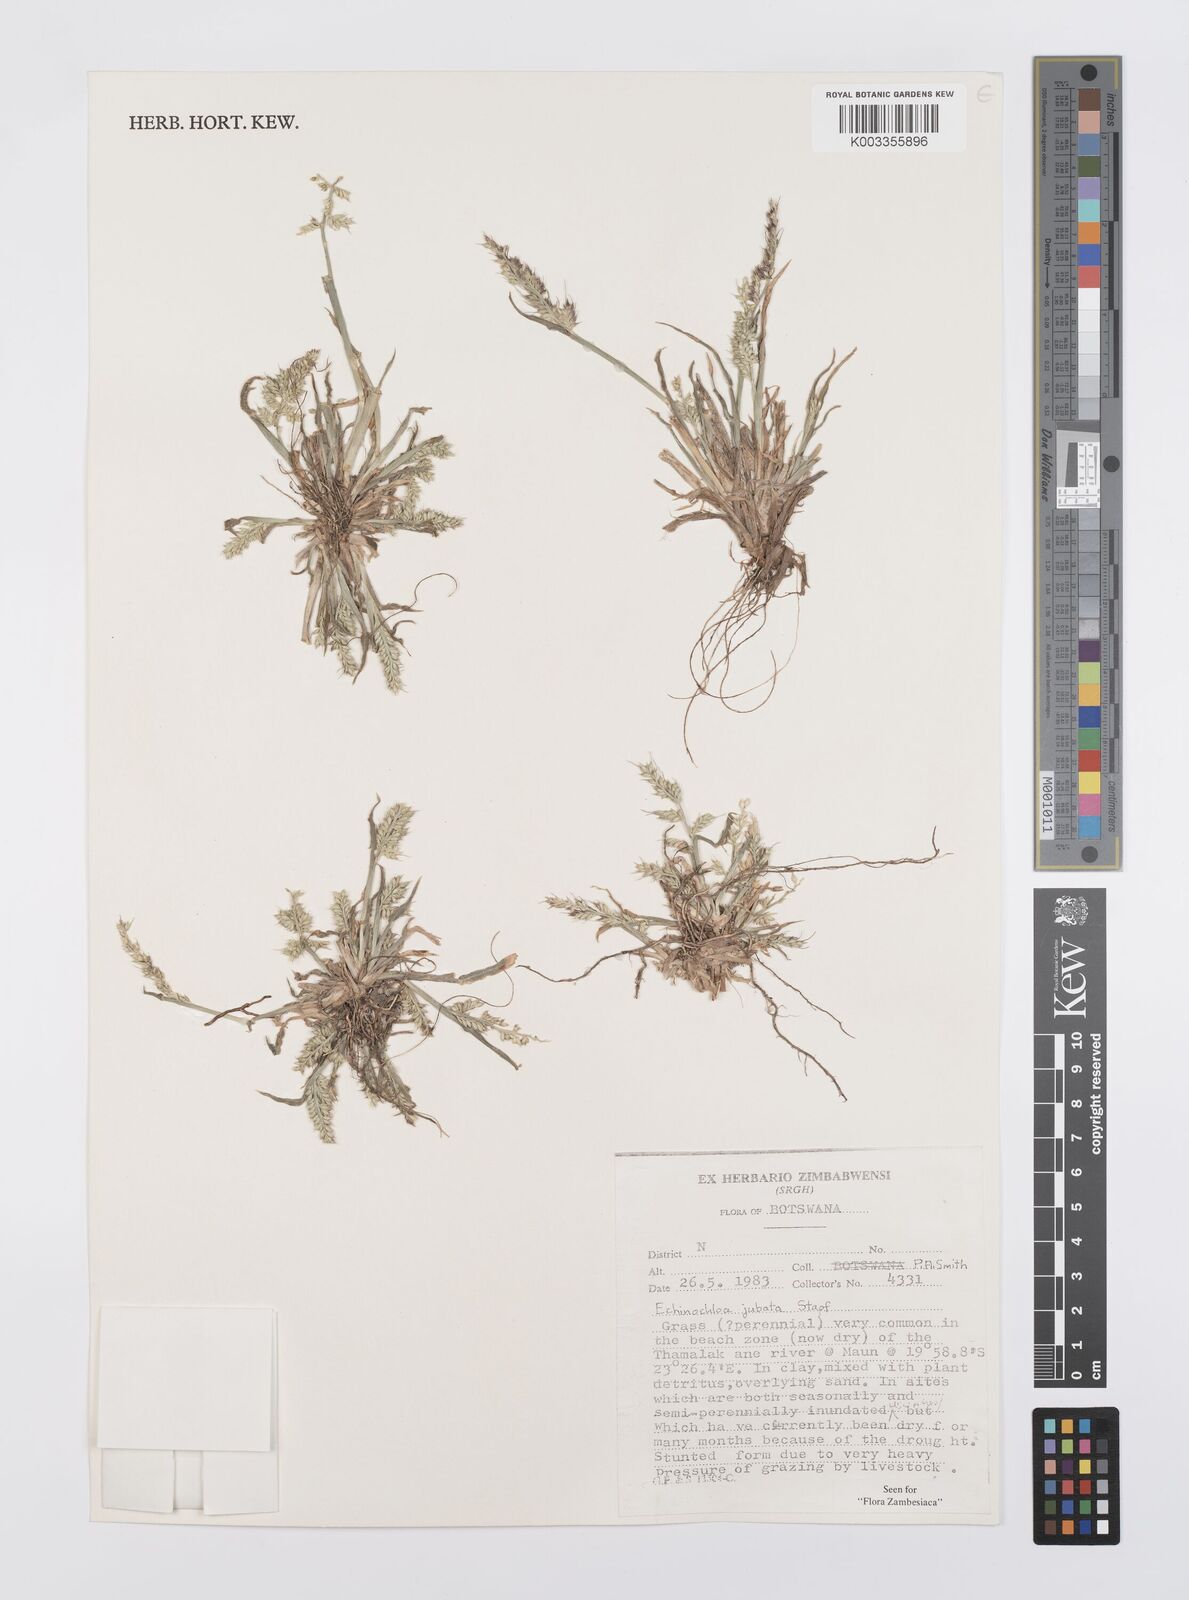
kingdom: Plantae
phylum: Tracheophyta
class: Liliopsida
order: Poales
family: Poaceae
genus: Echinochloa
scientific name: Echinochloa jubata
